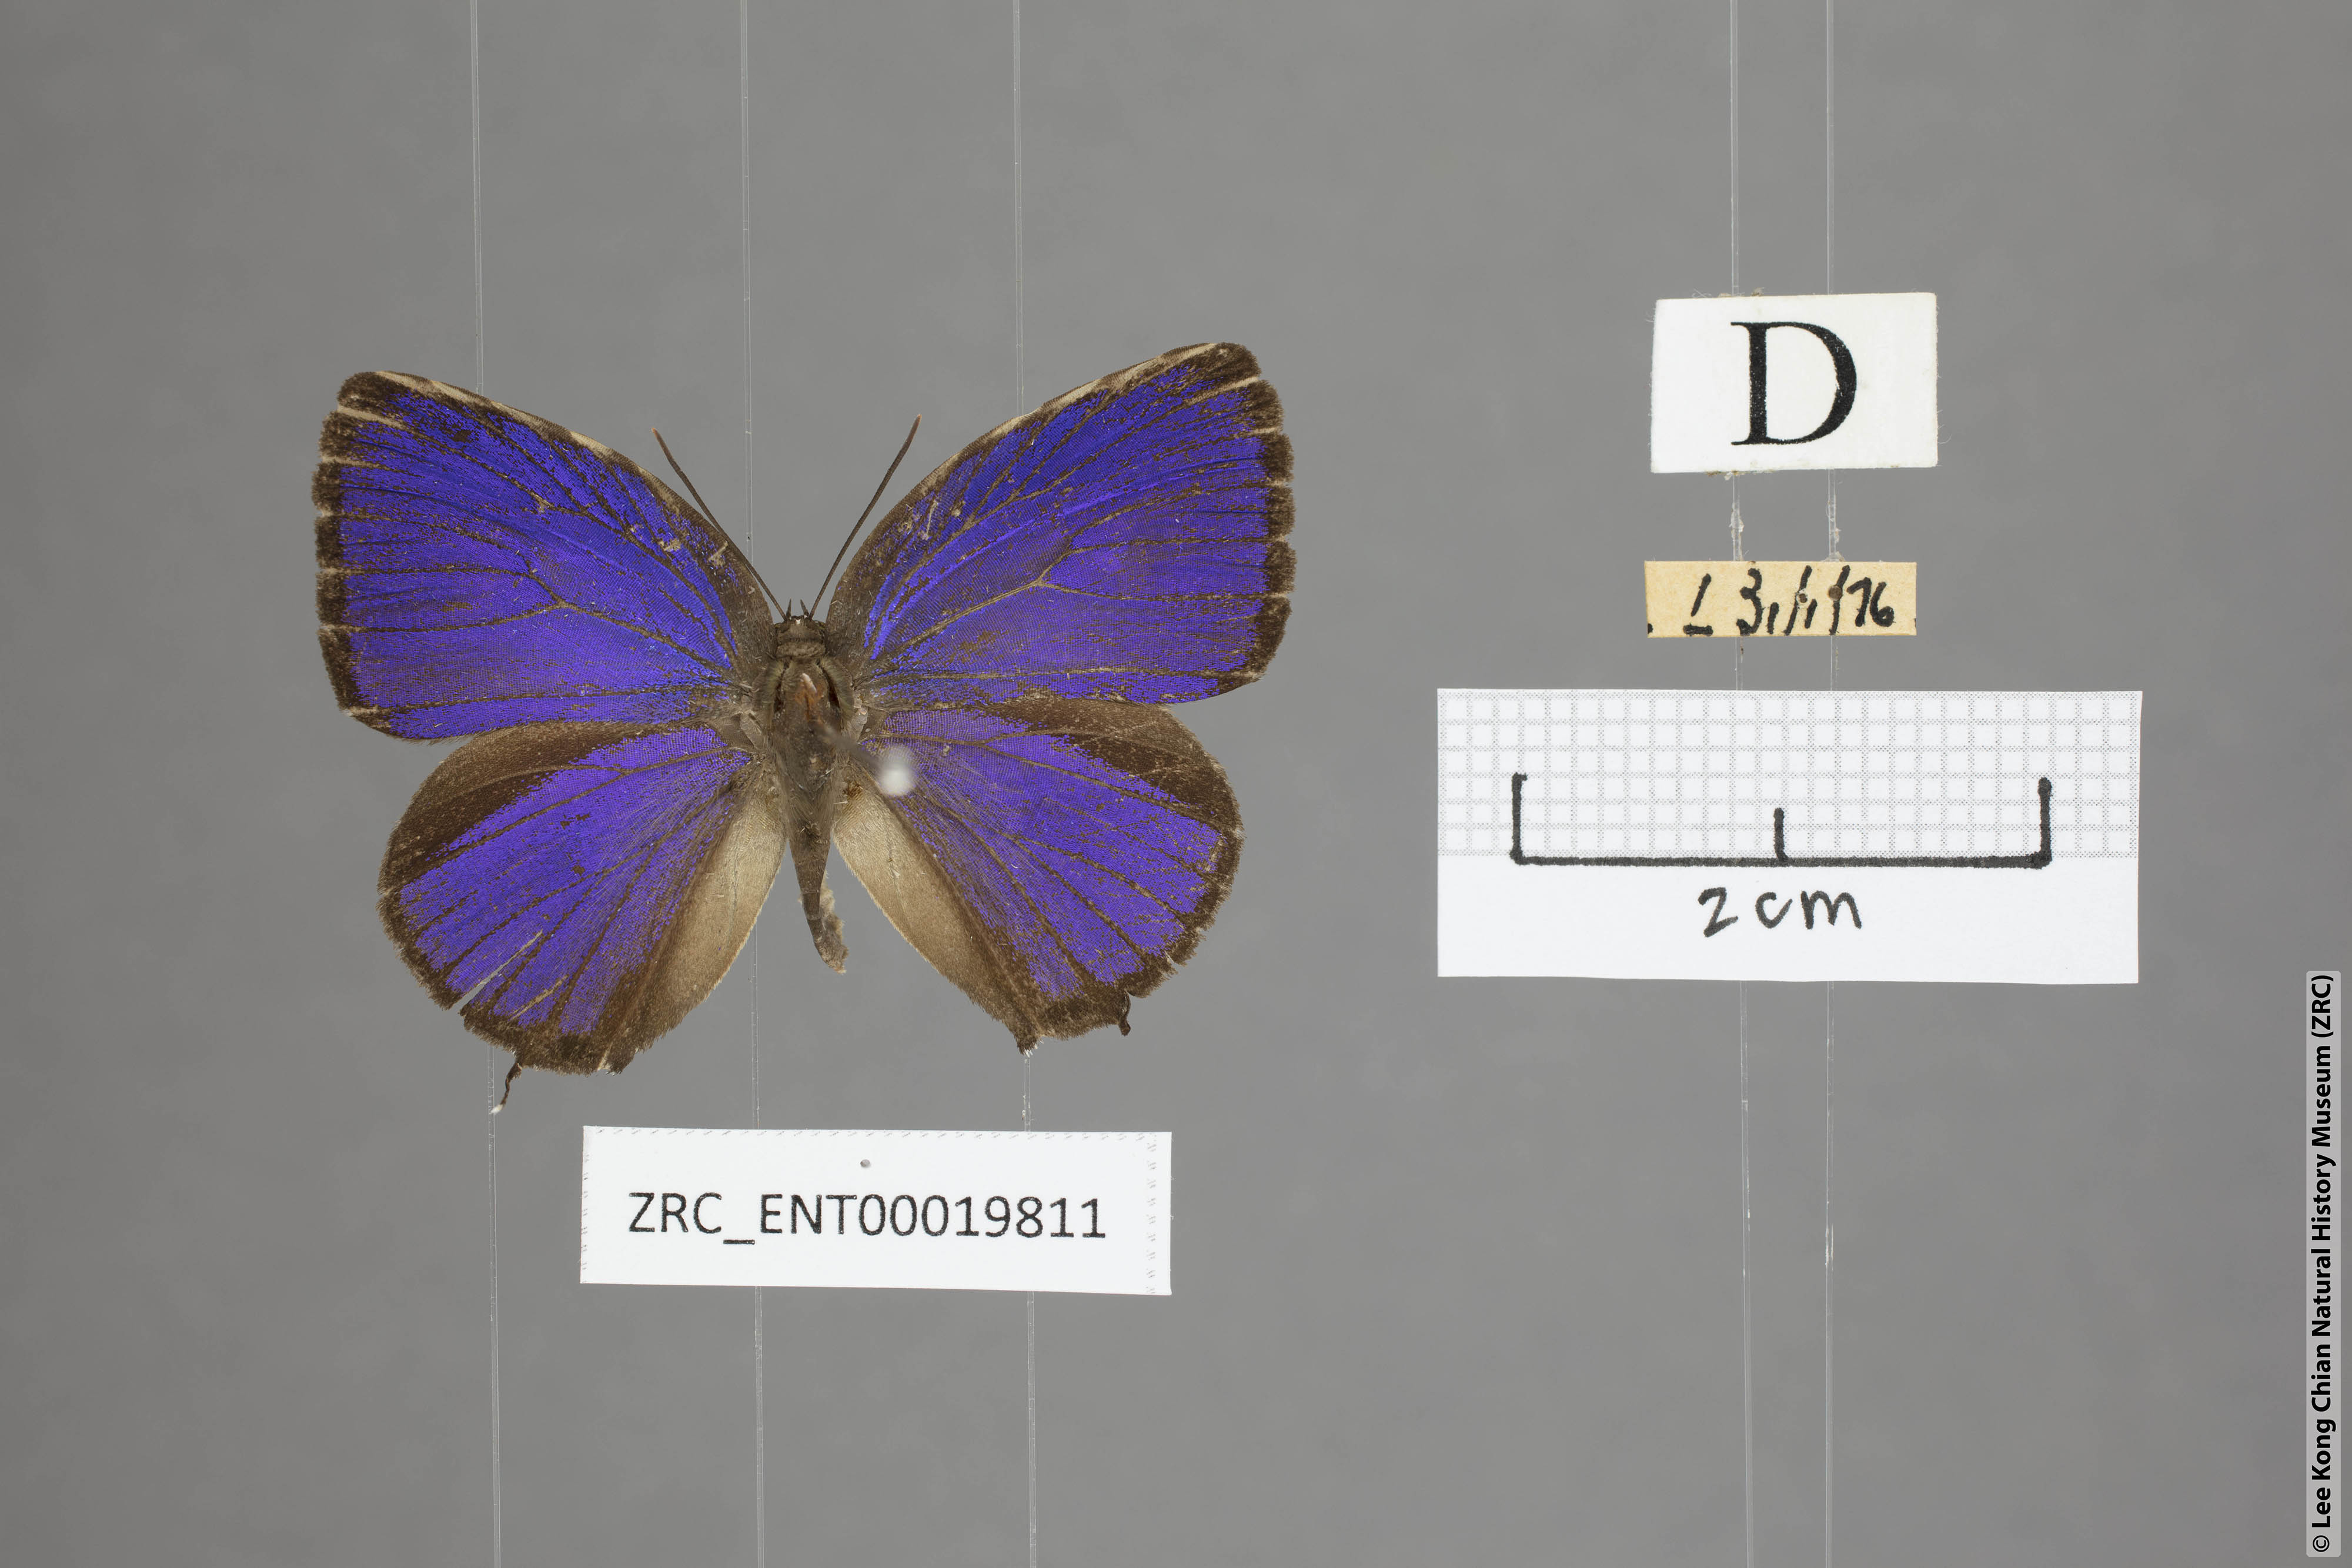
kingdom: Animalia
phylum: Arthropoda
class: Insecta
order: Lepidoptera
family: Lycaenidae
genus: Arhopala
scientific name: Arhopala pseudomuta
